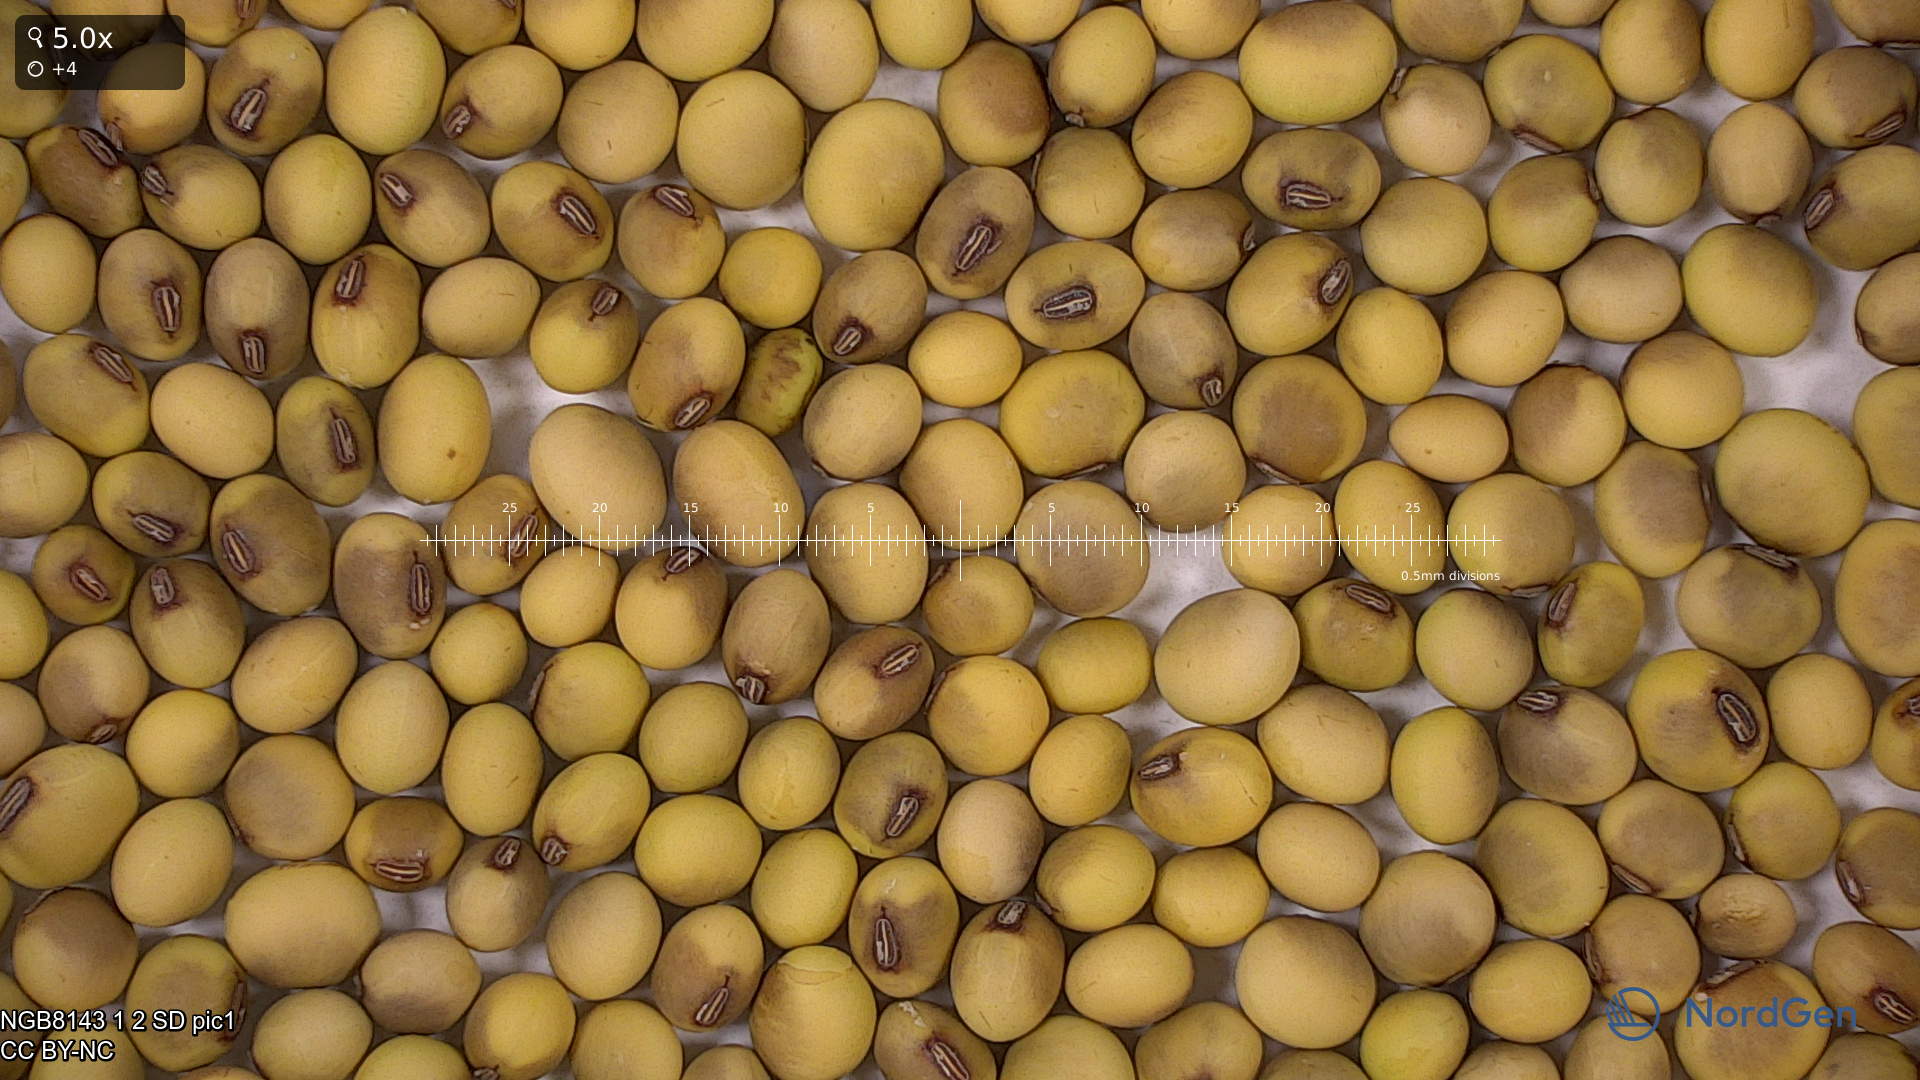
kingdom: Plantae
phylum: Tracheophyta
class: Magnoliopsida
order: Fabales
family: Fabaceae
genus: Glycine
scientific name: Glycine max
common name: Soya-bean
